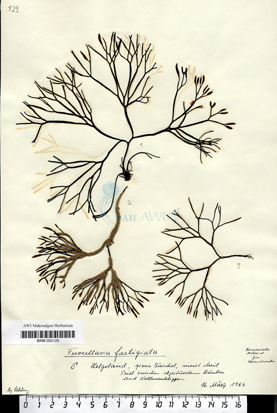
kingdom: Plantae
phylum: Rhodophyta
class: Florideophyceae
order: Gigartinales
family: Furcellariaceae
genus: Furcellaria
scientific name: Furcellaria lumbricalis
